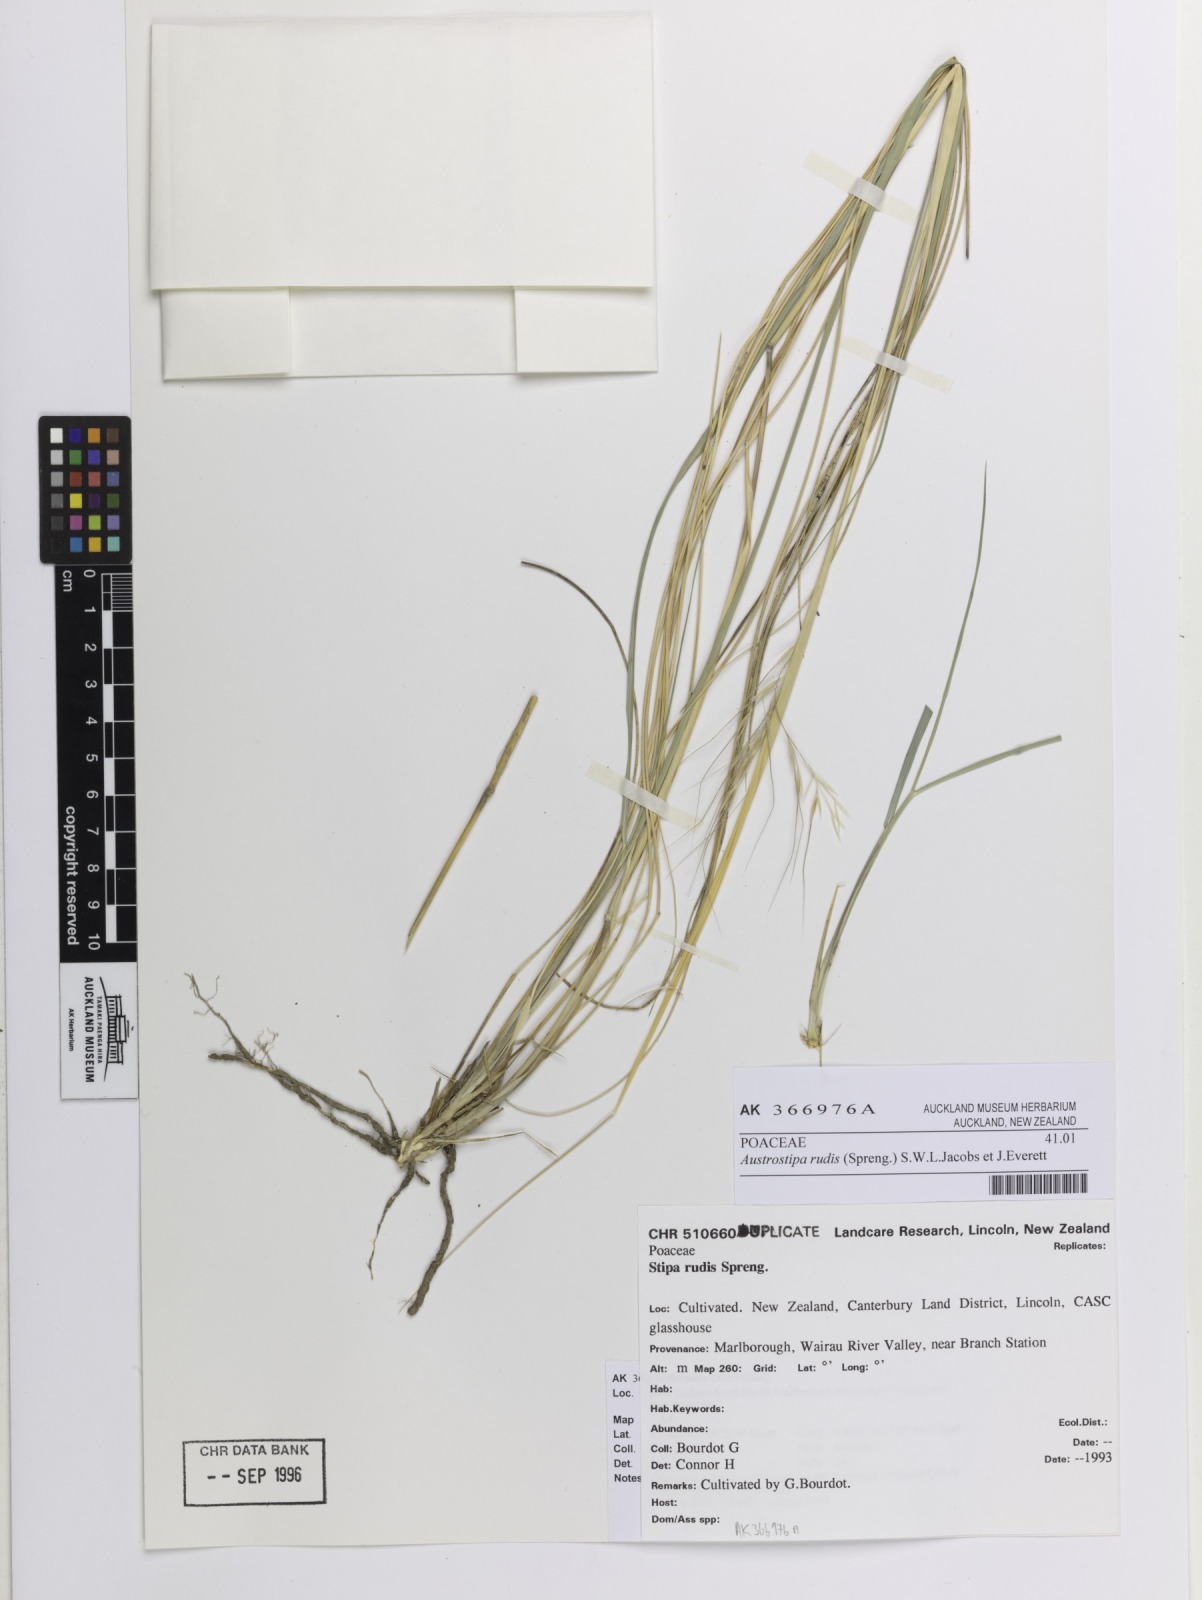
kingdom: Plantae
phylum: Tracheophyta
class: Liliopsida
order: Poales
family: Poaceae
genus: Austrostipa
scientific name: Austrostipa rudis
